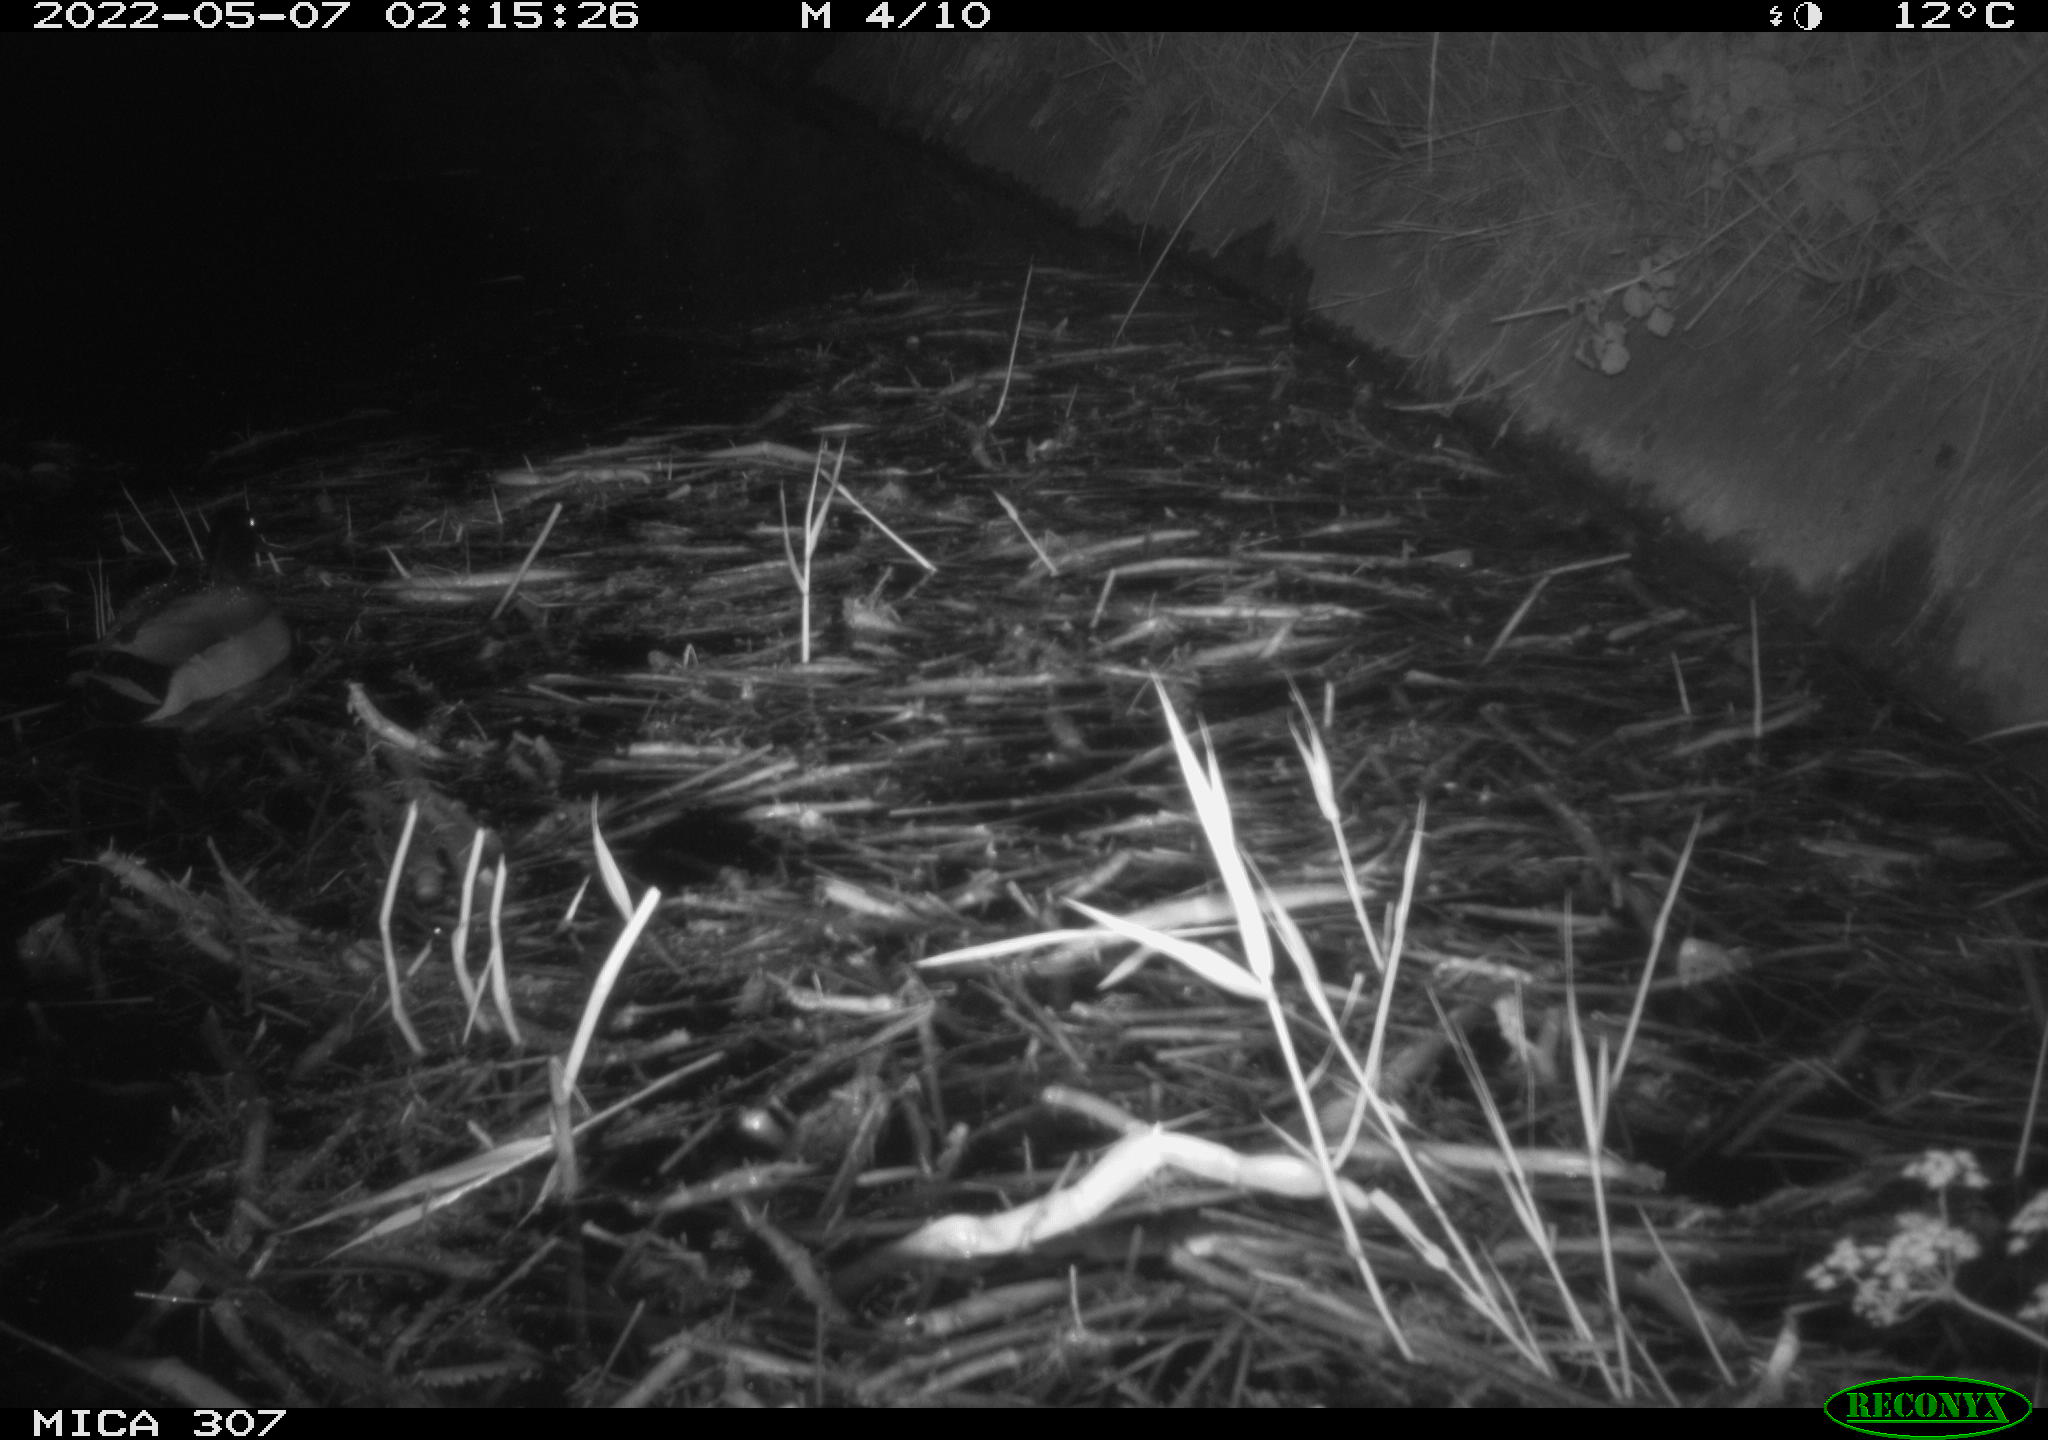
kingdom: Animalia
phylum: Chordata
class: Aves
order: Anseriformes
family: Anatidae
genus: Anas
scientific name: Anas platyrhynchos
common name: Mallard
